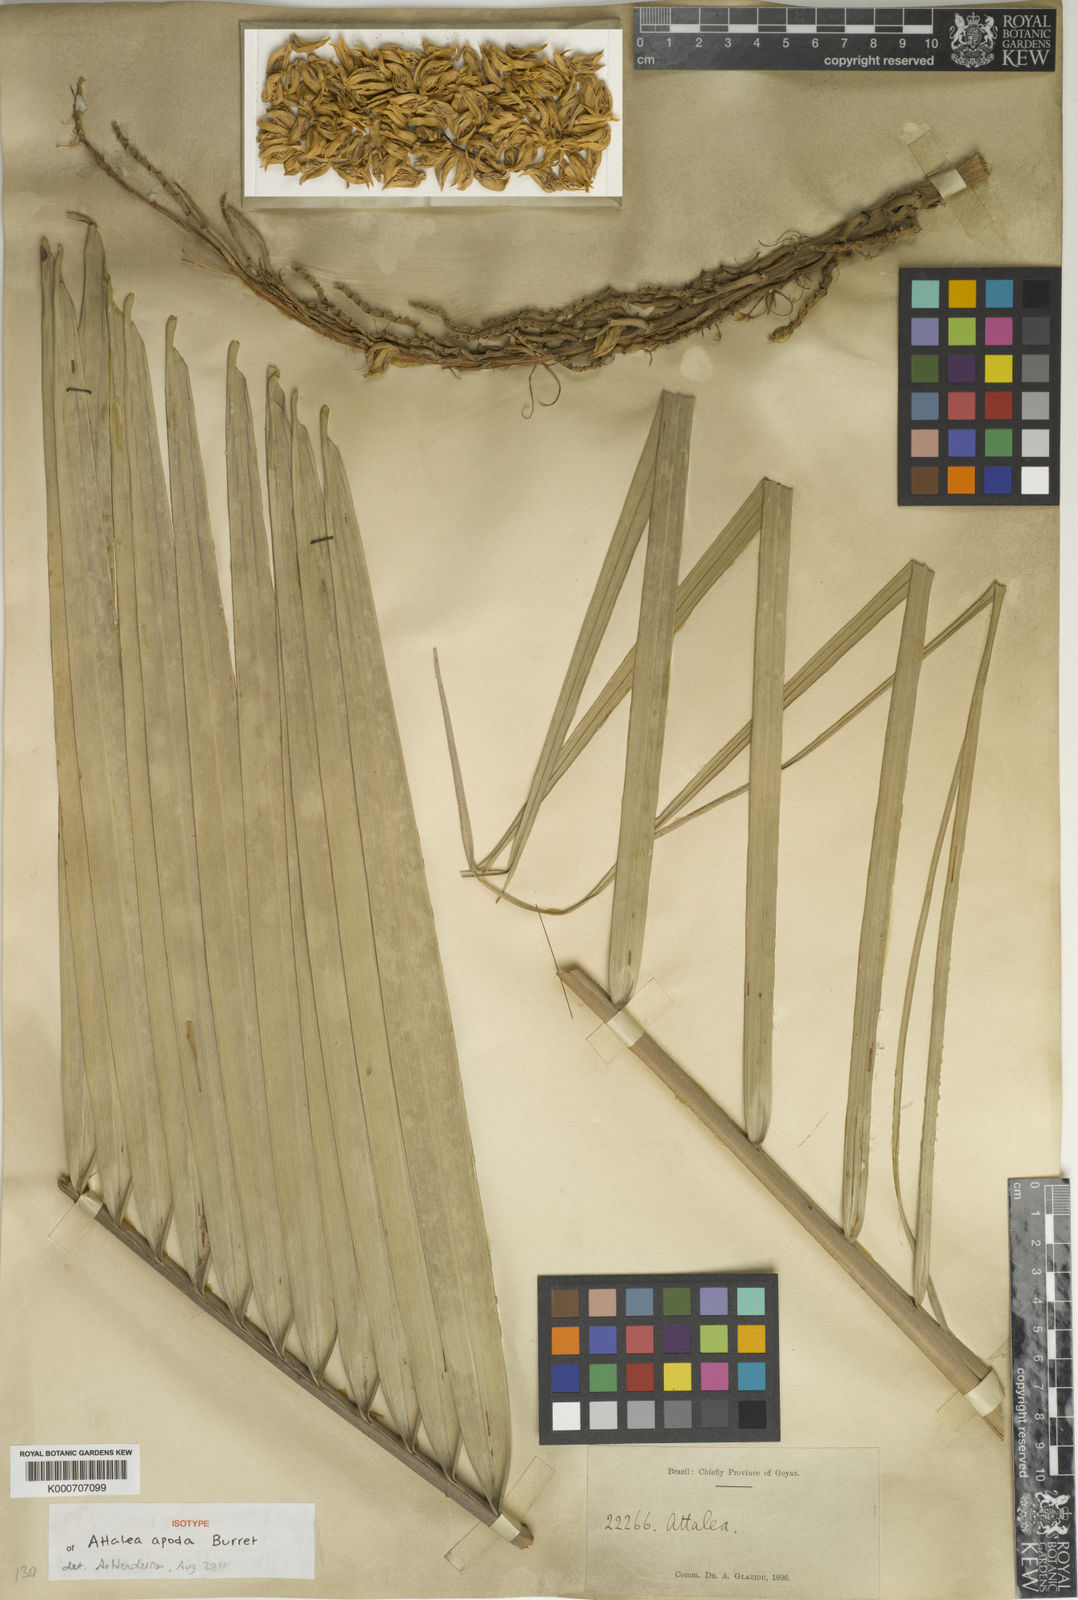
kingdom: Plantae
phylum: Tracheophyta
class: Liliopsida
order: Arecales
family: Arecaceae
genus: Attalea
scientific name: Attalea apoda
